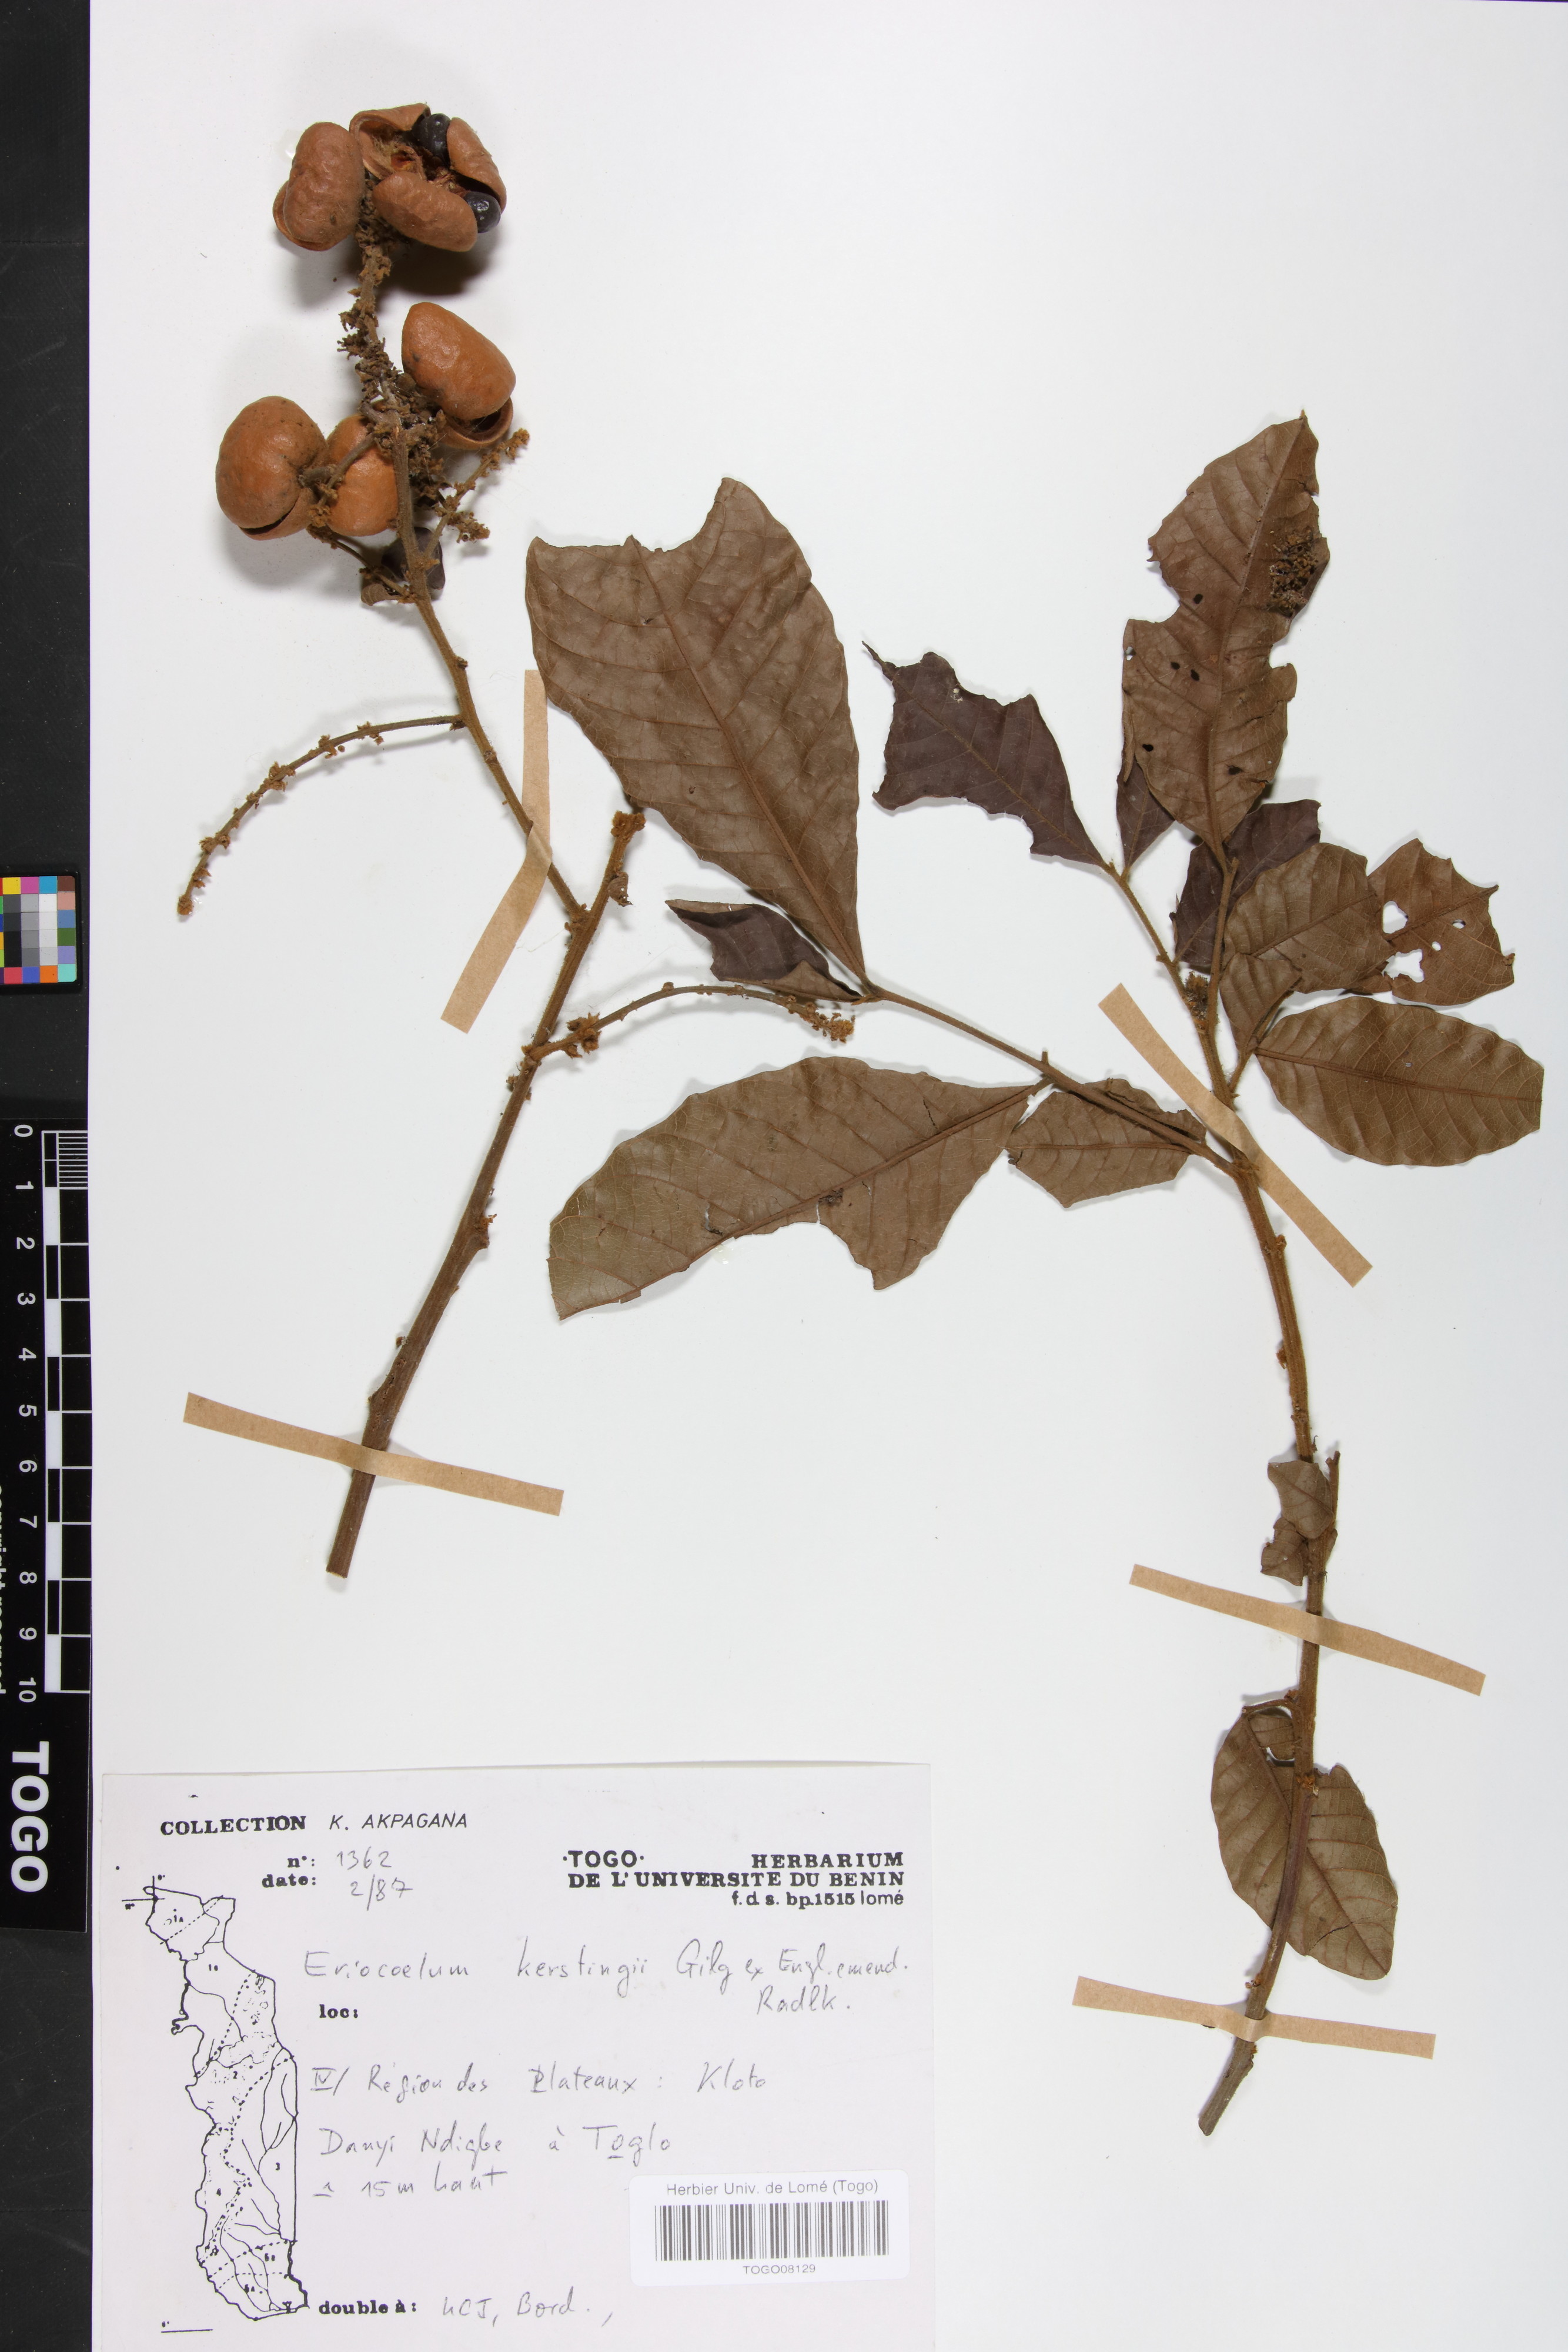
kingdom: Plantae
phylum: Tracheophyta
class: Magnoliopsida
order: Sapindales
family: Sapindaceae
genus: Eriocoelum
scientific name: Eriocoelum kerstingii
